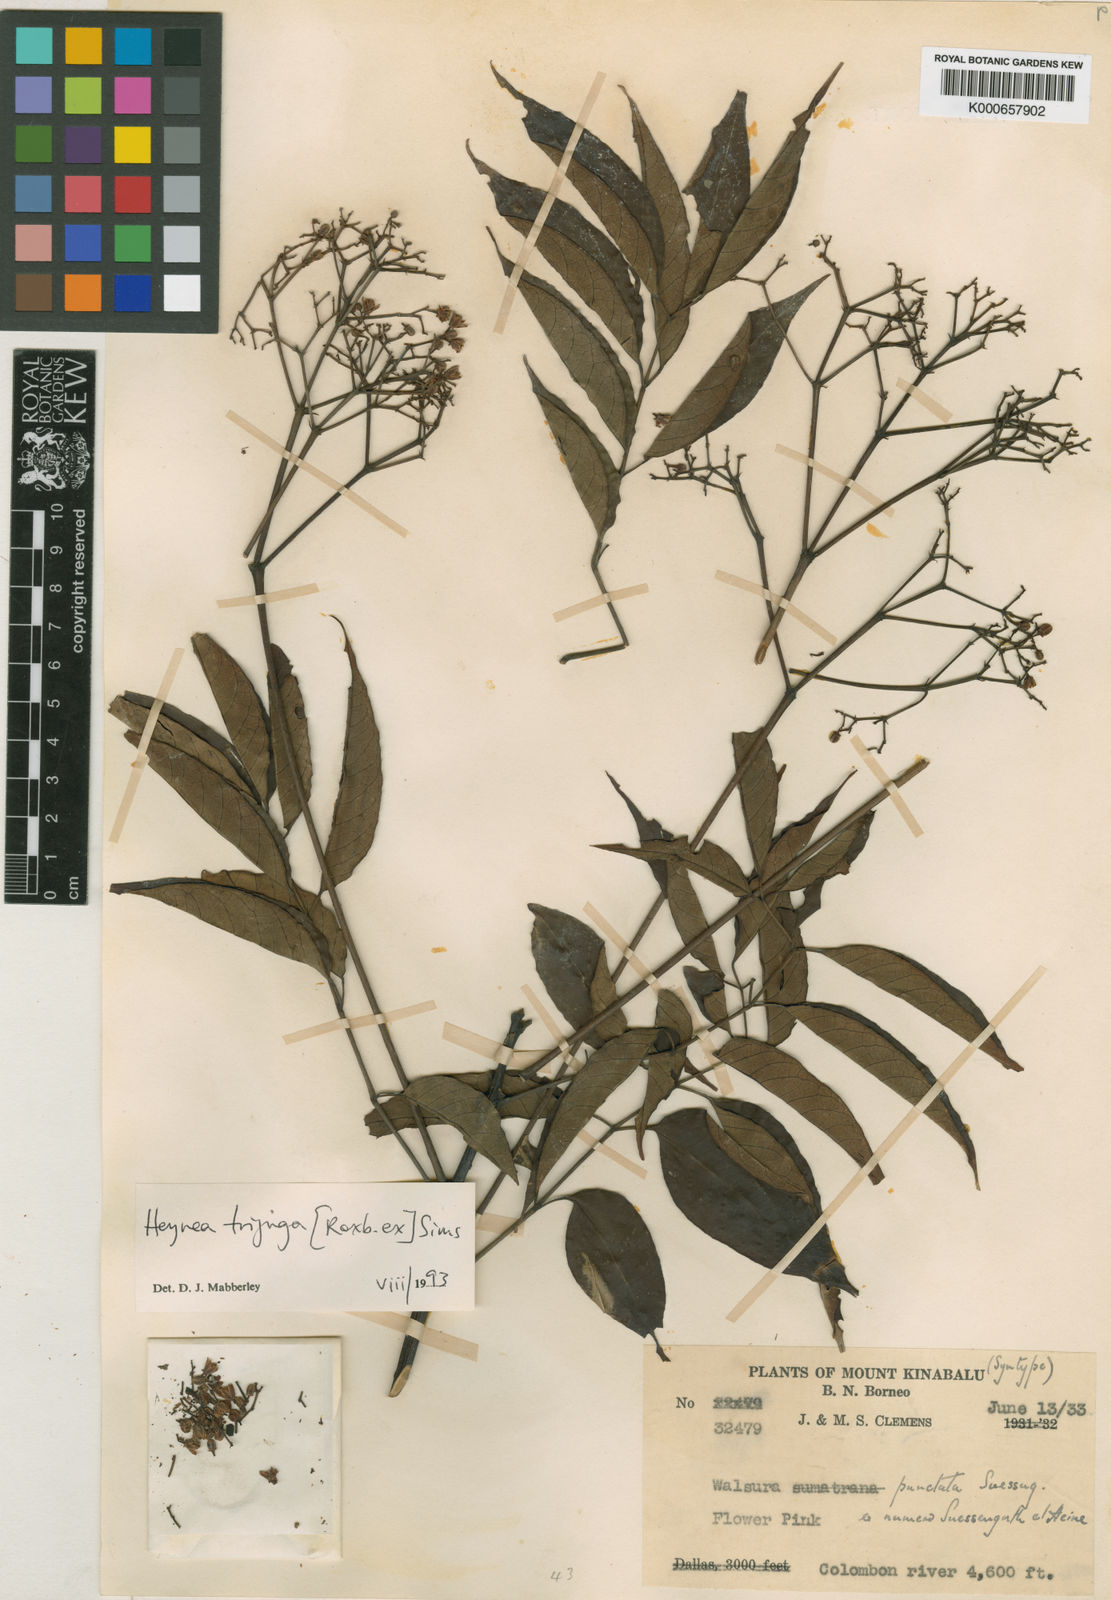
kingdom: Plantae
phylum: Tracheophyta
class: Magnoliopsida
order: Sapindales
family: Meliaceae
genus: Heynea
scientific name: Heynea trijuga
